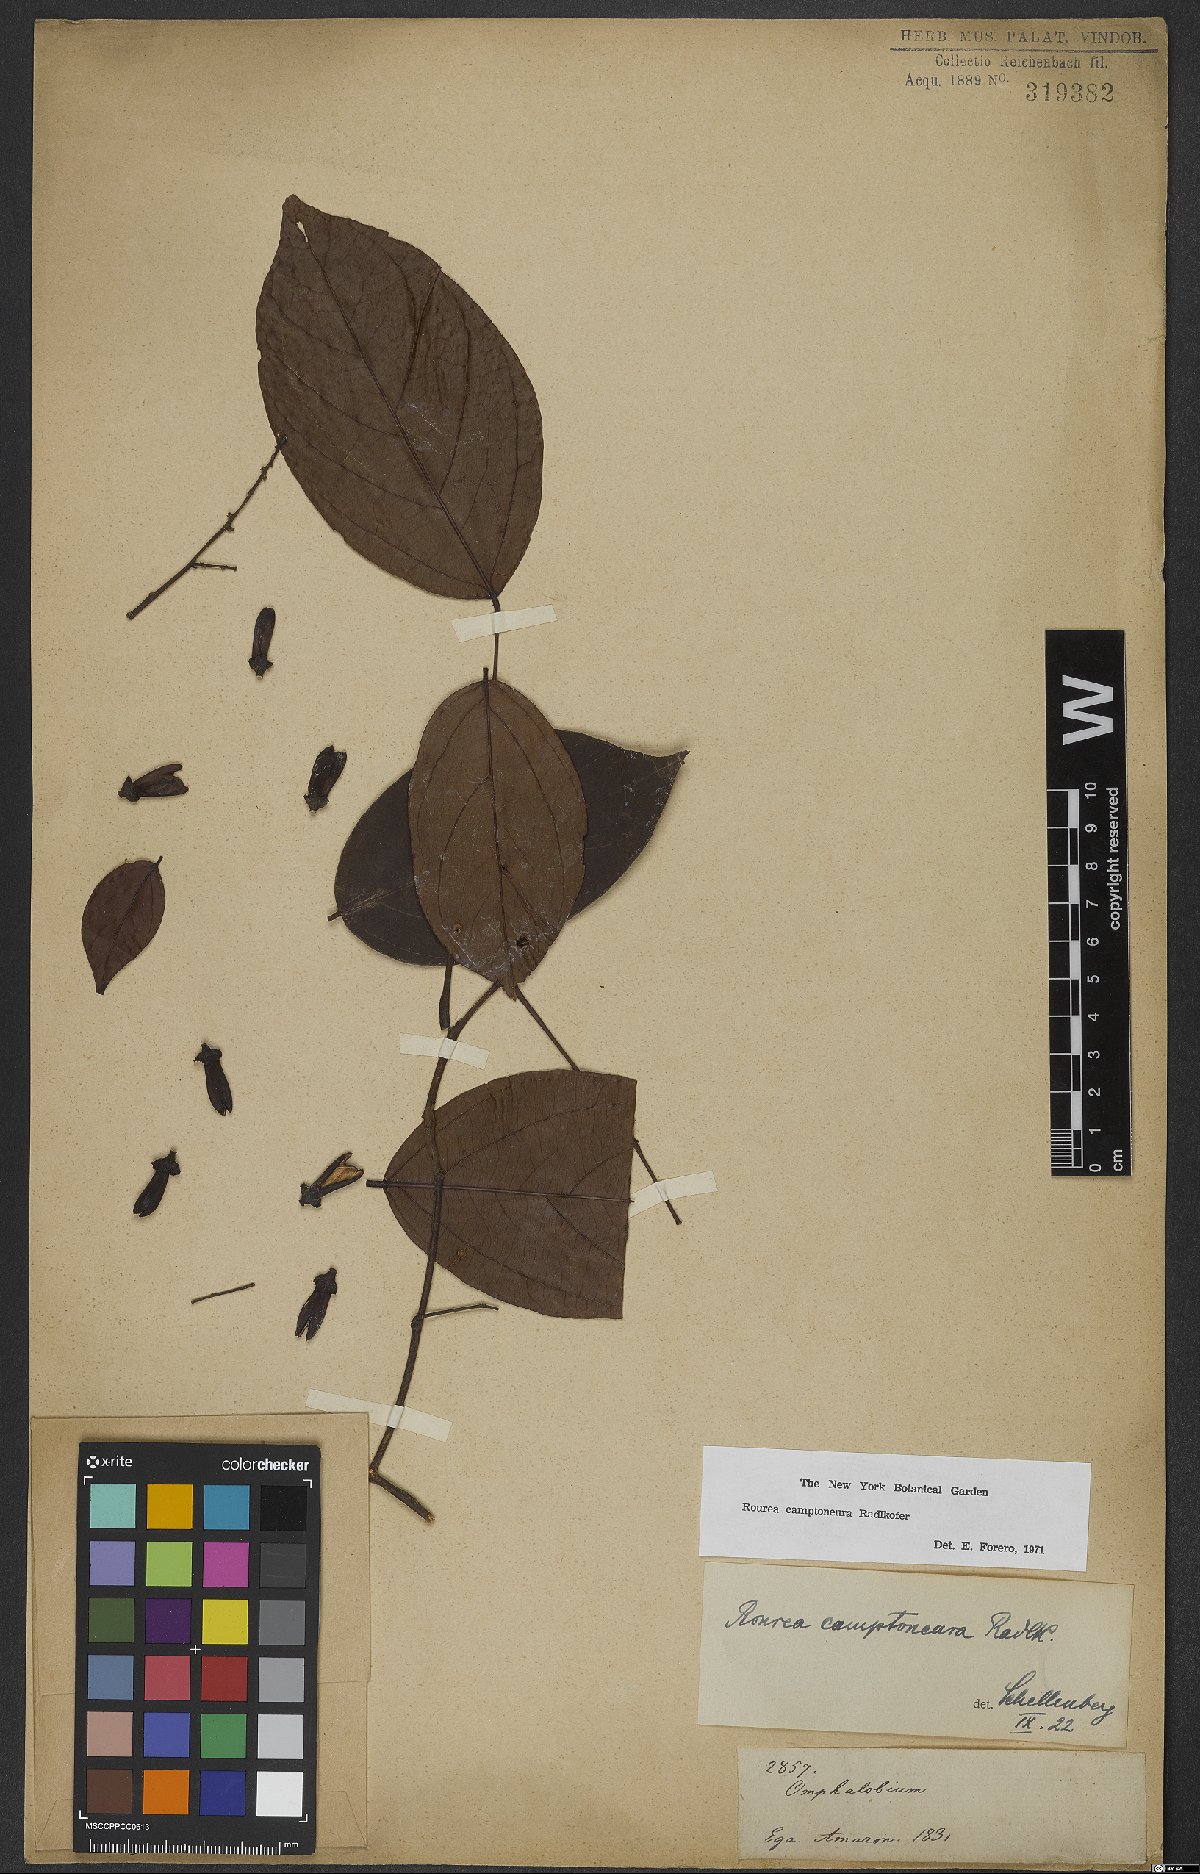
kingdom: Plantae
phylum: Tracheophyta
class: Magnoliopsida
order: Oxalidales
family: Connaraceae
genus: Rourea
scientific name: Rourea camptoneura
